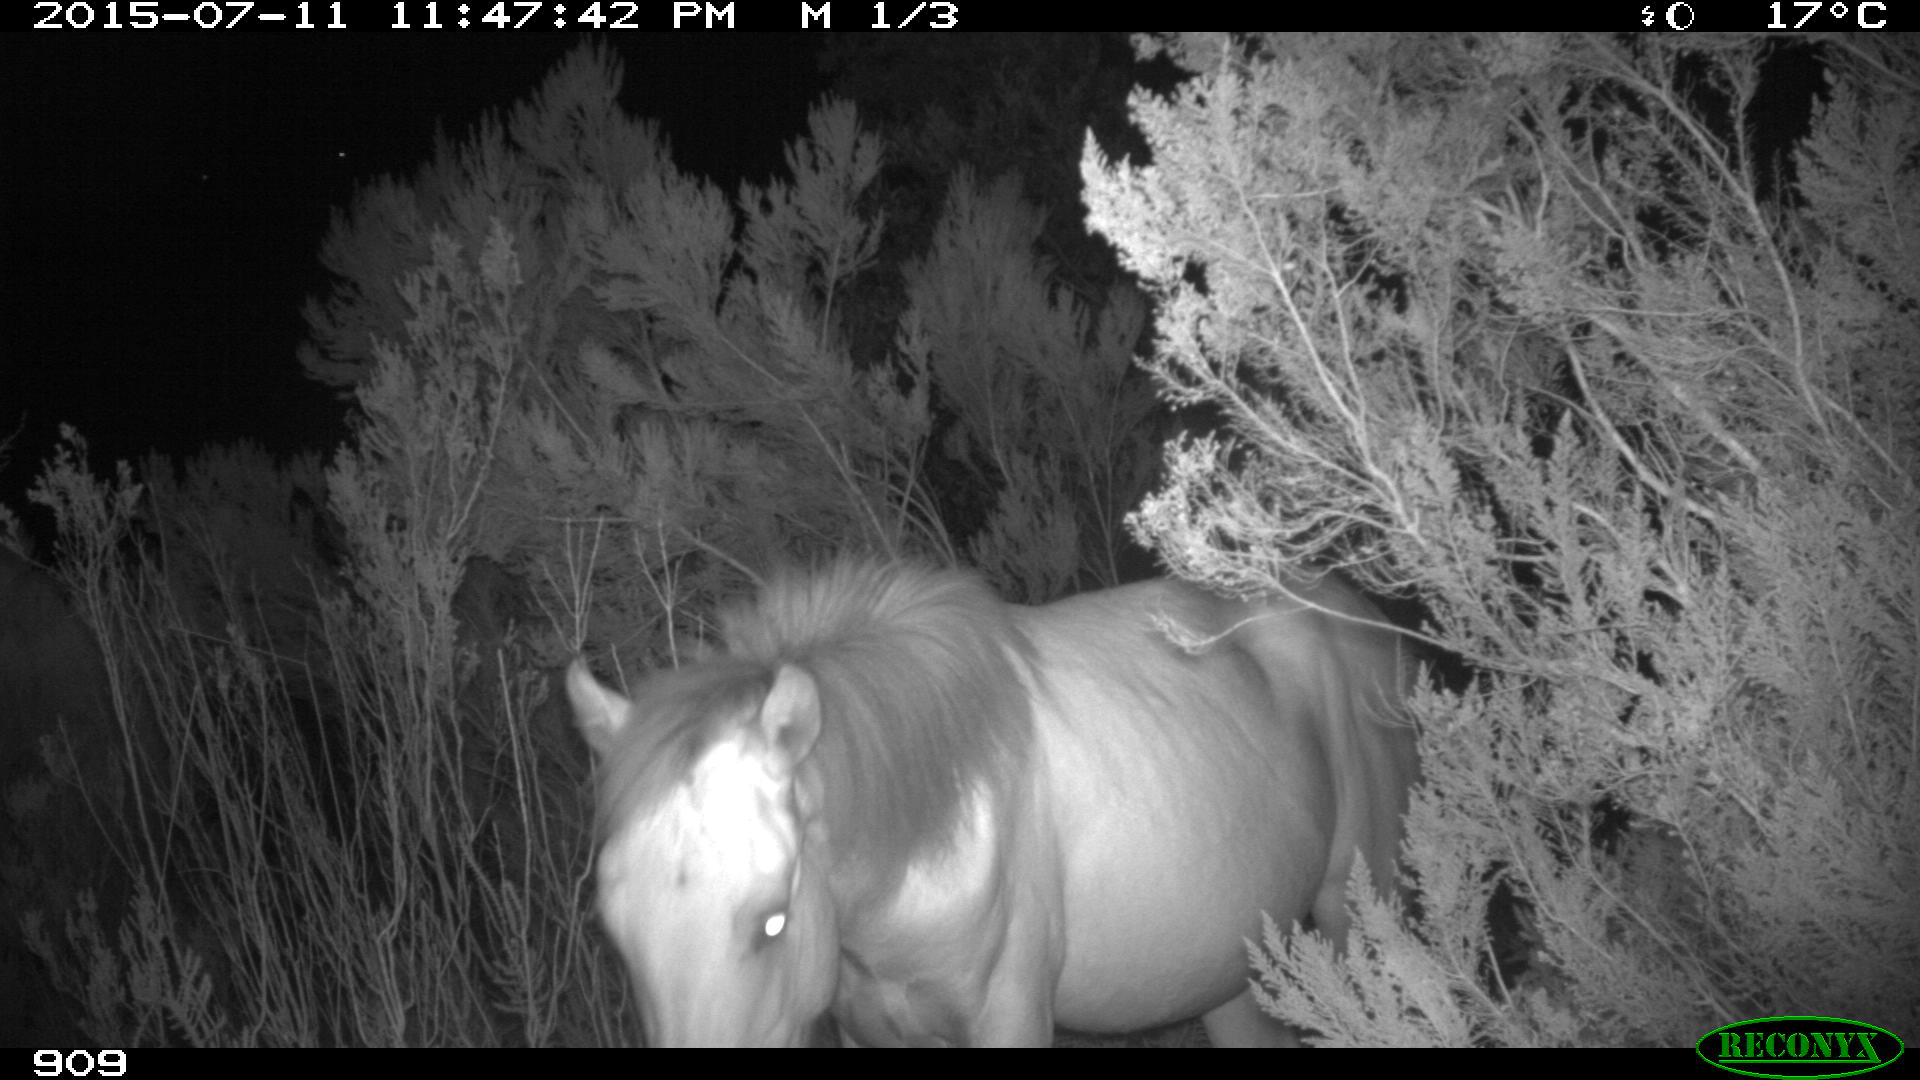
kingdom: Animalia
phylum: Chordata
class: Mammalia
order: Perissodactyla
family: Equidae
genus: Equus
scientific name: Equus caballus
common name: Horse
